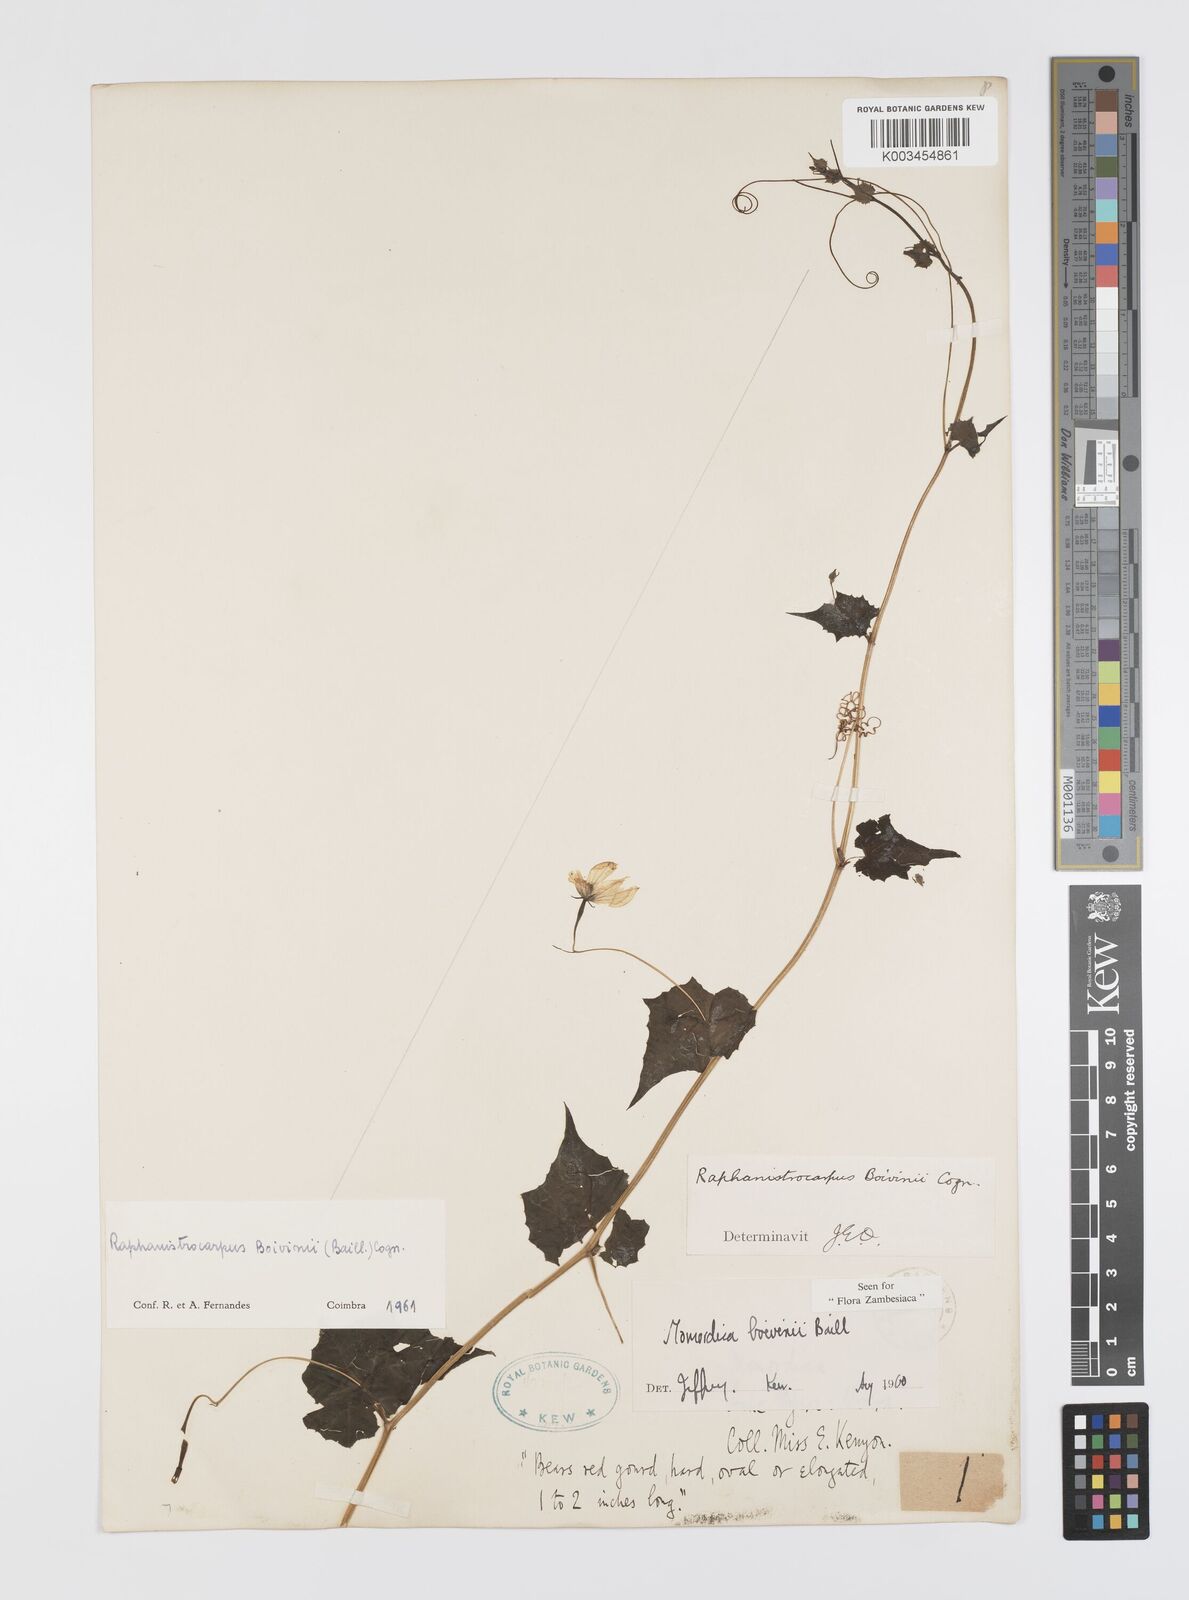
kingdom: Plantae
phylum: Tracheophyta
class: Magnoliopsida
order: Cucurbitales
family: Cucurbitaceae
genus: Momordica
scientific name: Momordica boivinii
